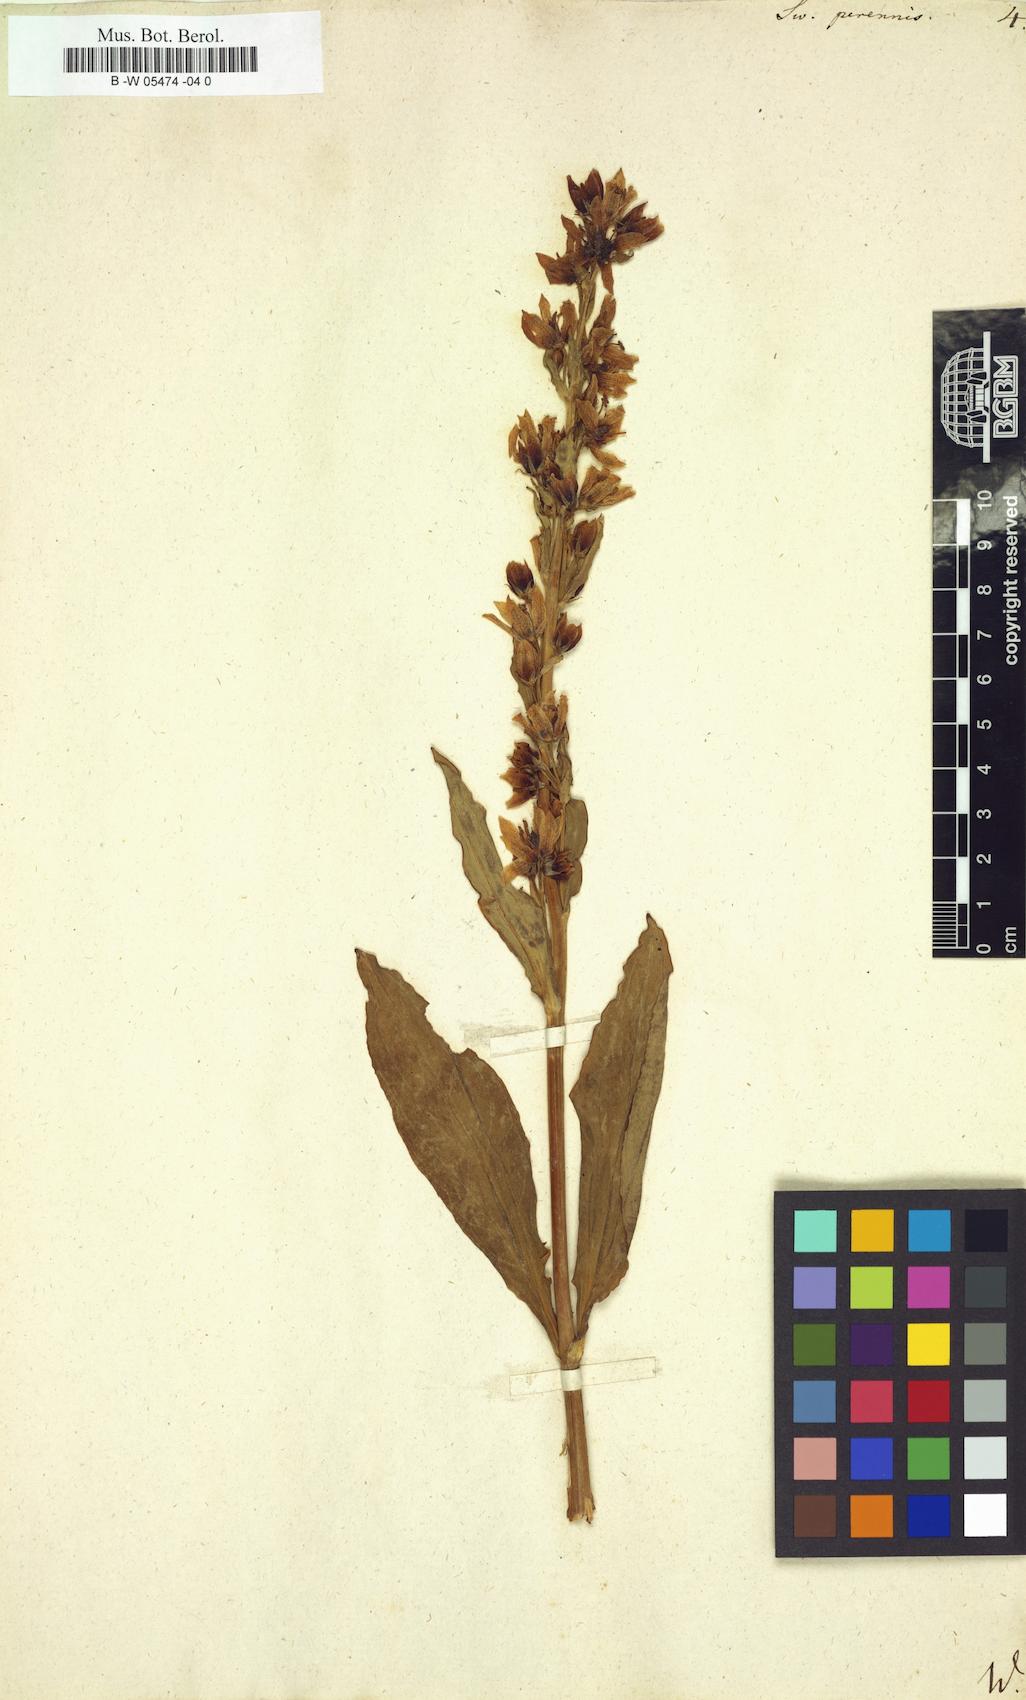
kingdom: Plantae
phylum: Tracheophyta
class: Magnoliopsida
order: Gentianales
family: Gentianaceae
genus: Swertia
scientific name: Swertia perennis
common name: Alpine bog swertia
